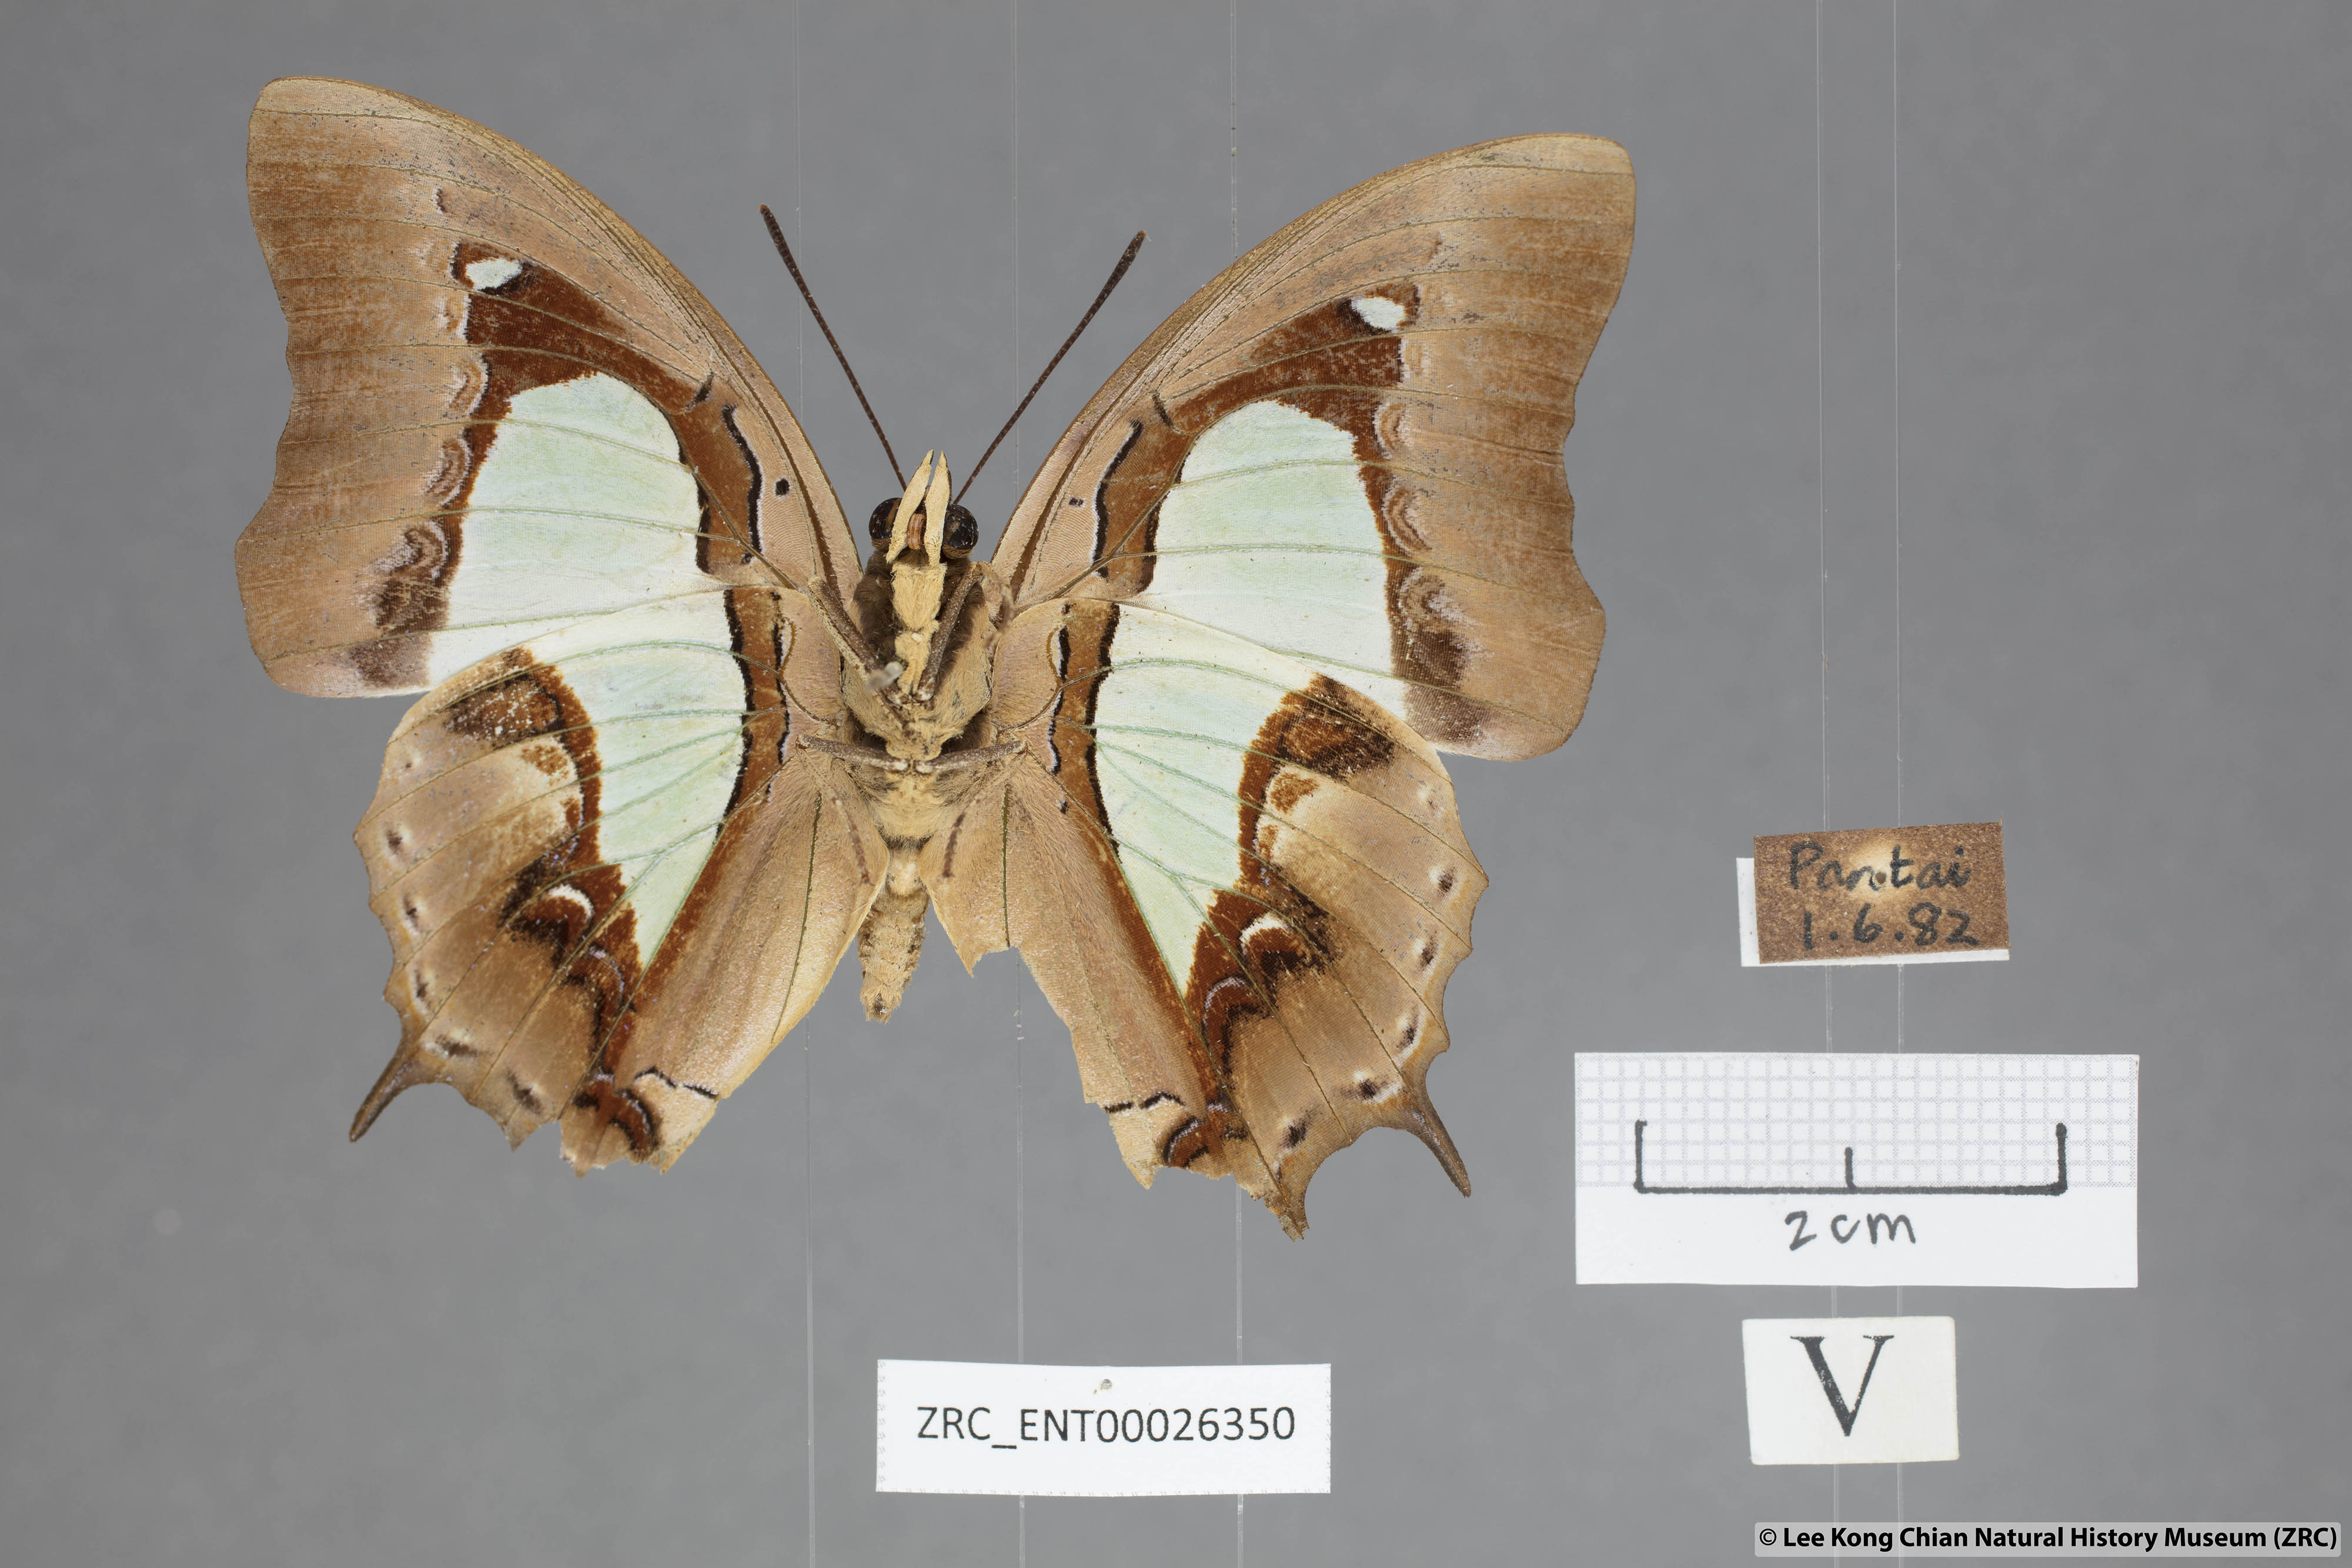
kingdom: Animalia
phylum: Arthropoda
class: Insecta
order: Lepidoptera
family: Nymphalidae
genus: Polyura
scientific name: Polyura hebe
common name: Plain nawab
